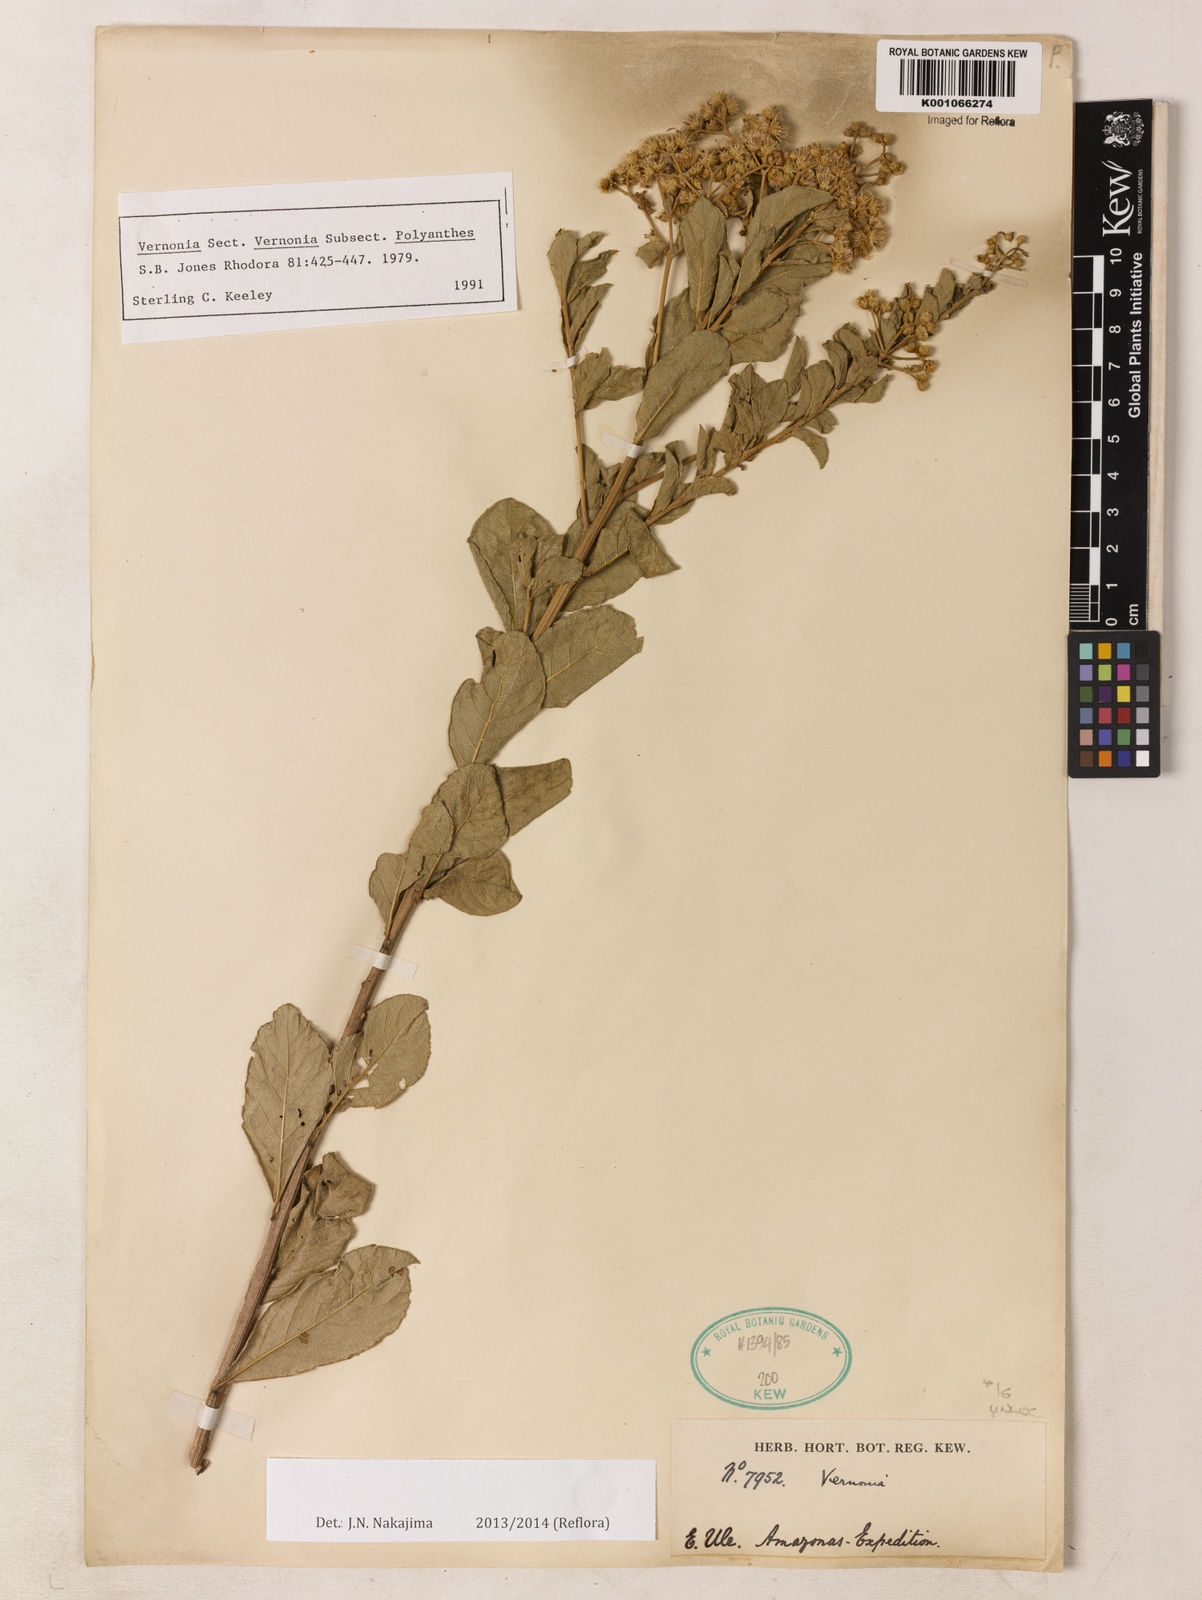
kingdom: Plantae
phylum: Tracheophyta
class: Magnoliopsida
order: Asterales
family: Asteraceae
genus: Vernonanthura
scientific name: Vernonanthura brasiliana
